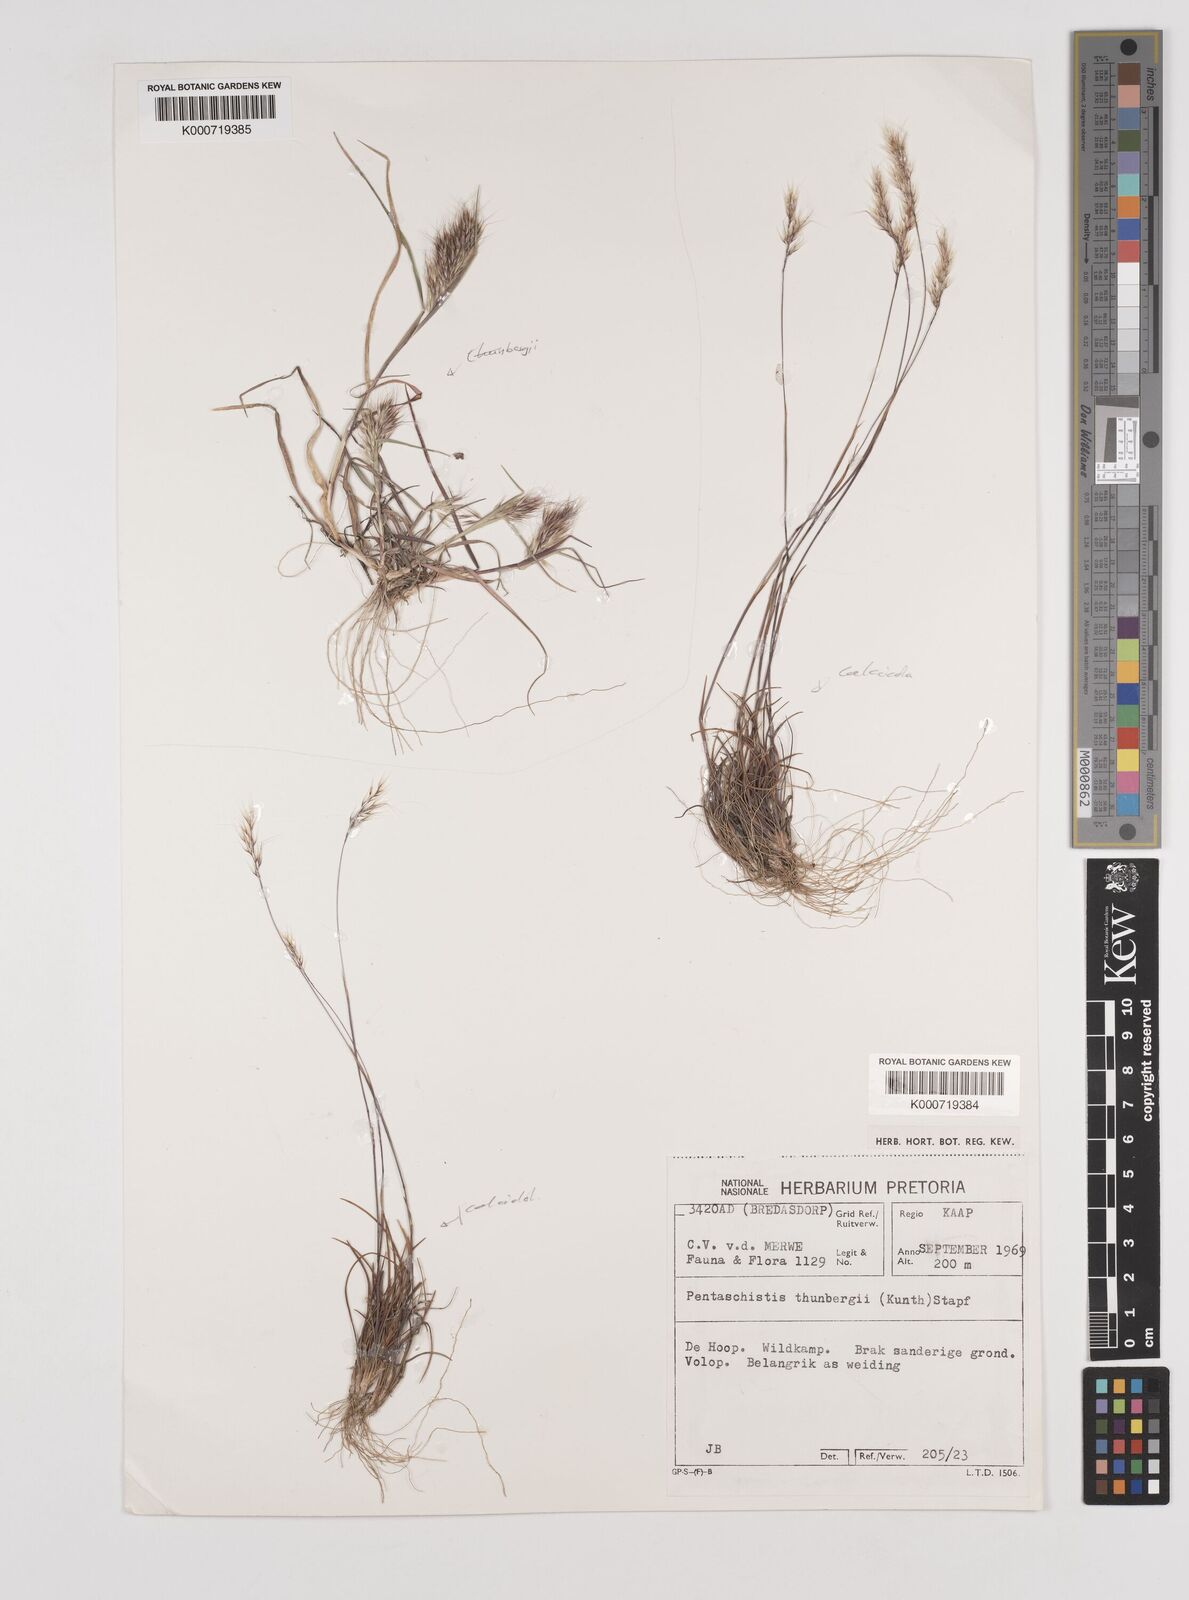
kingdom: Plantae
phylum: Tracheophyta
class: Liliopsida
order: Poales
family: Poaceae
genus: Pentameris
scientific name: Pentameris triseta
